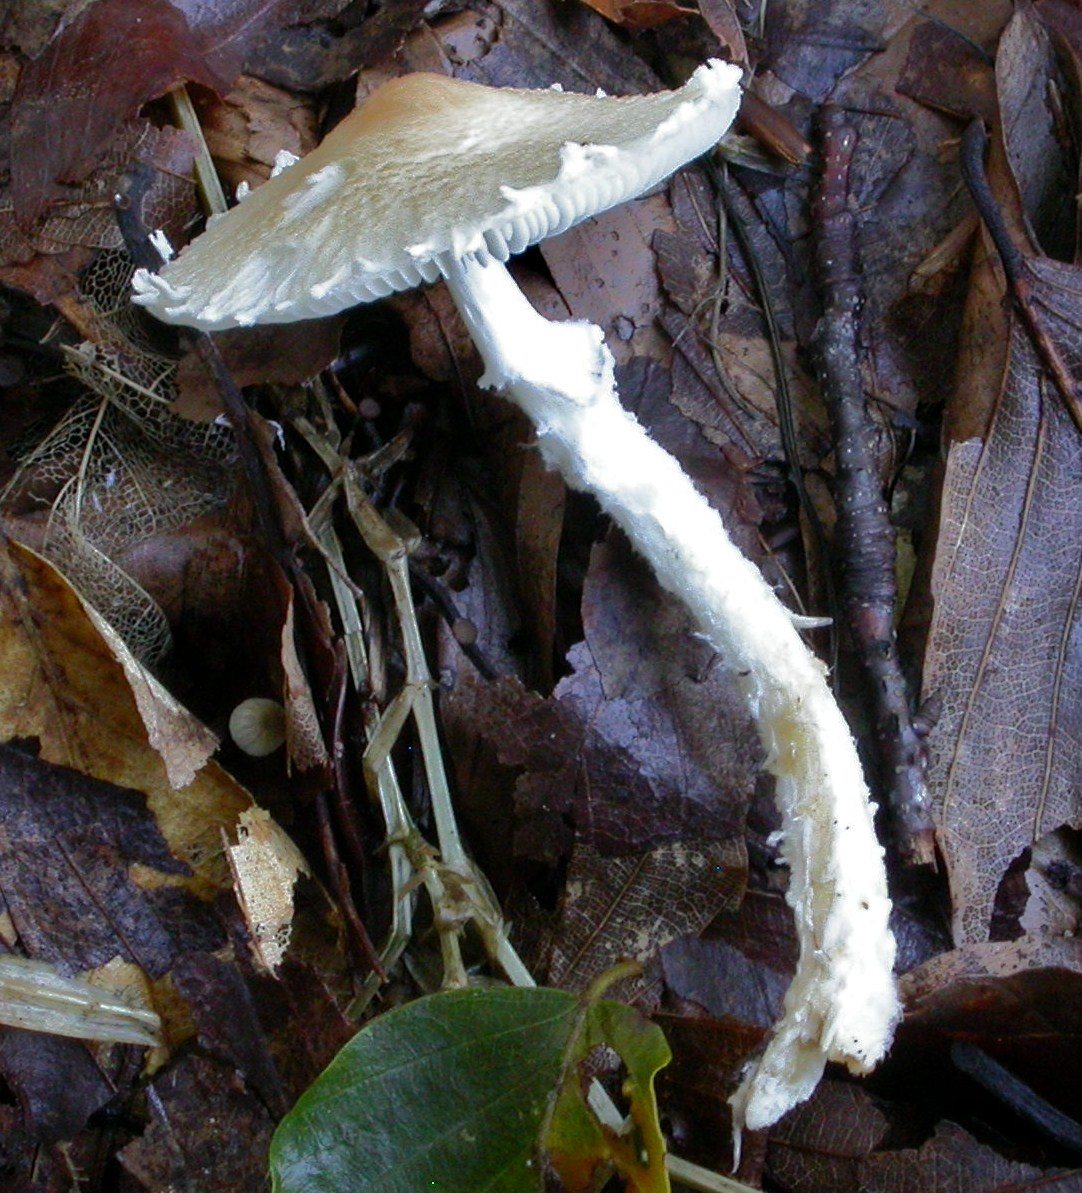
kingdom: Fungi
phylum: Basidiomycota
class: Agaricomycetes
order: Agaricales
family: Agaricaceae
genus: Lepiota
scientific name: Lepiota clypeolaria
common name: flosset parasolhat
